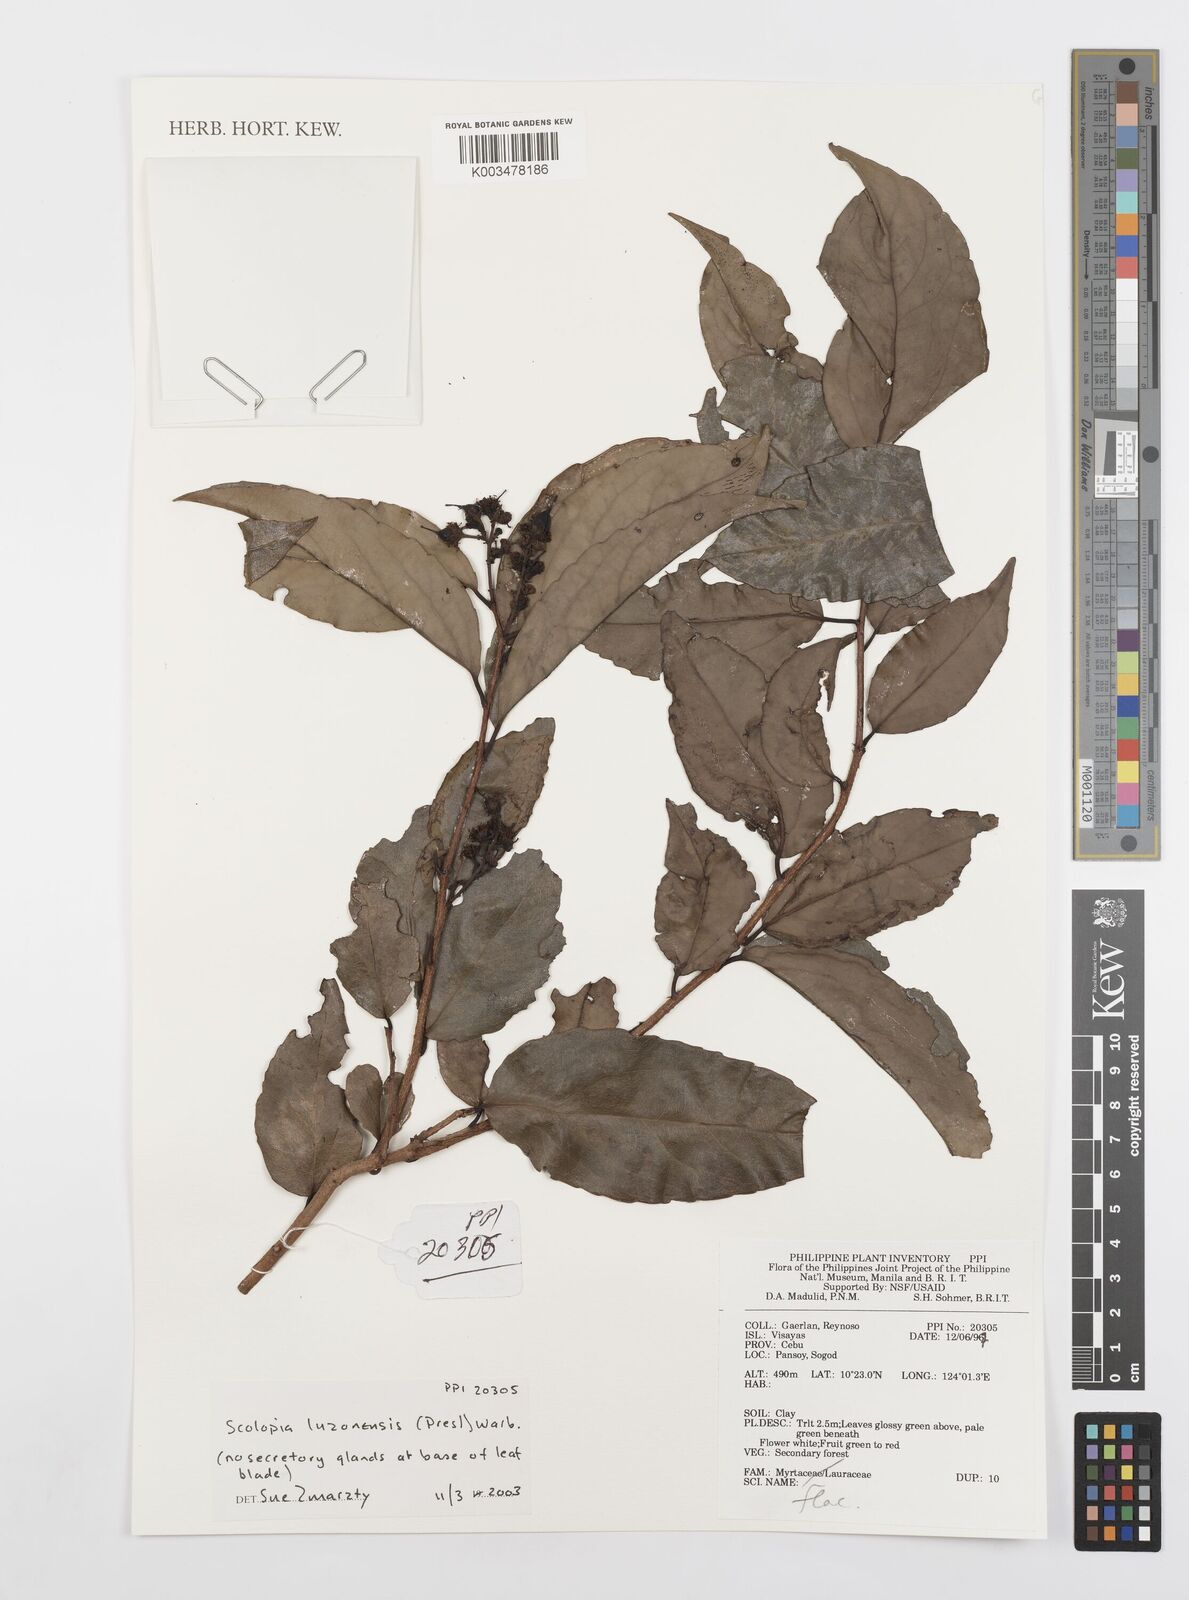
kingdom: Plantae
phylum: Tracheophyta
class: Magnoliopsida
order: Malpighiales
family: Salicaceae
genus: Scolopia
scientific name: Scolopia luzonensis
